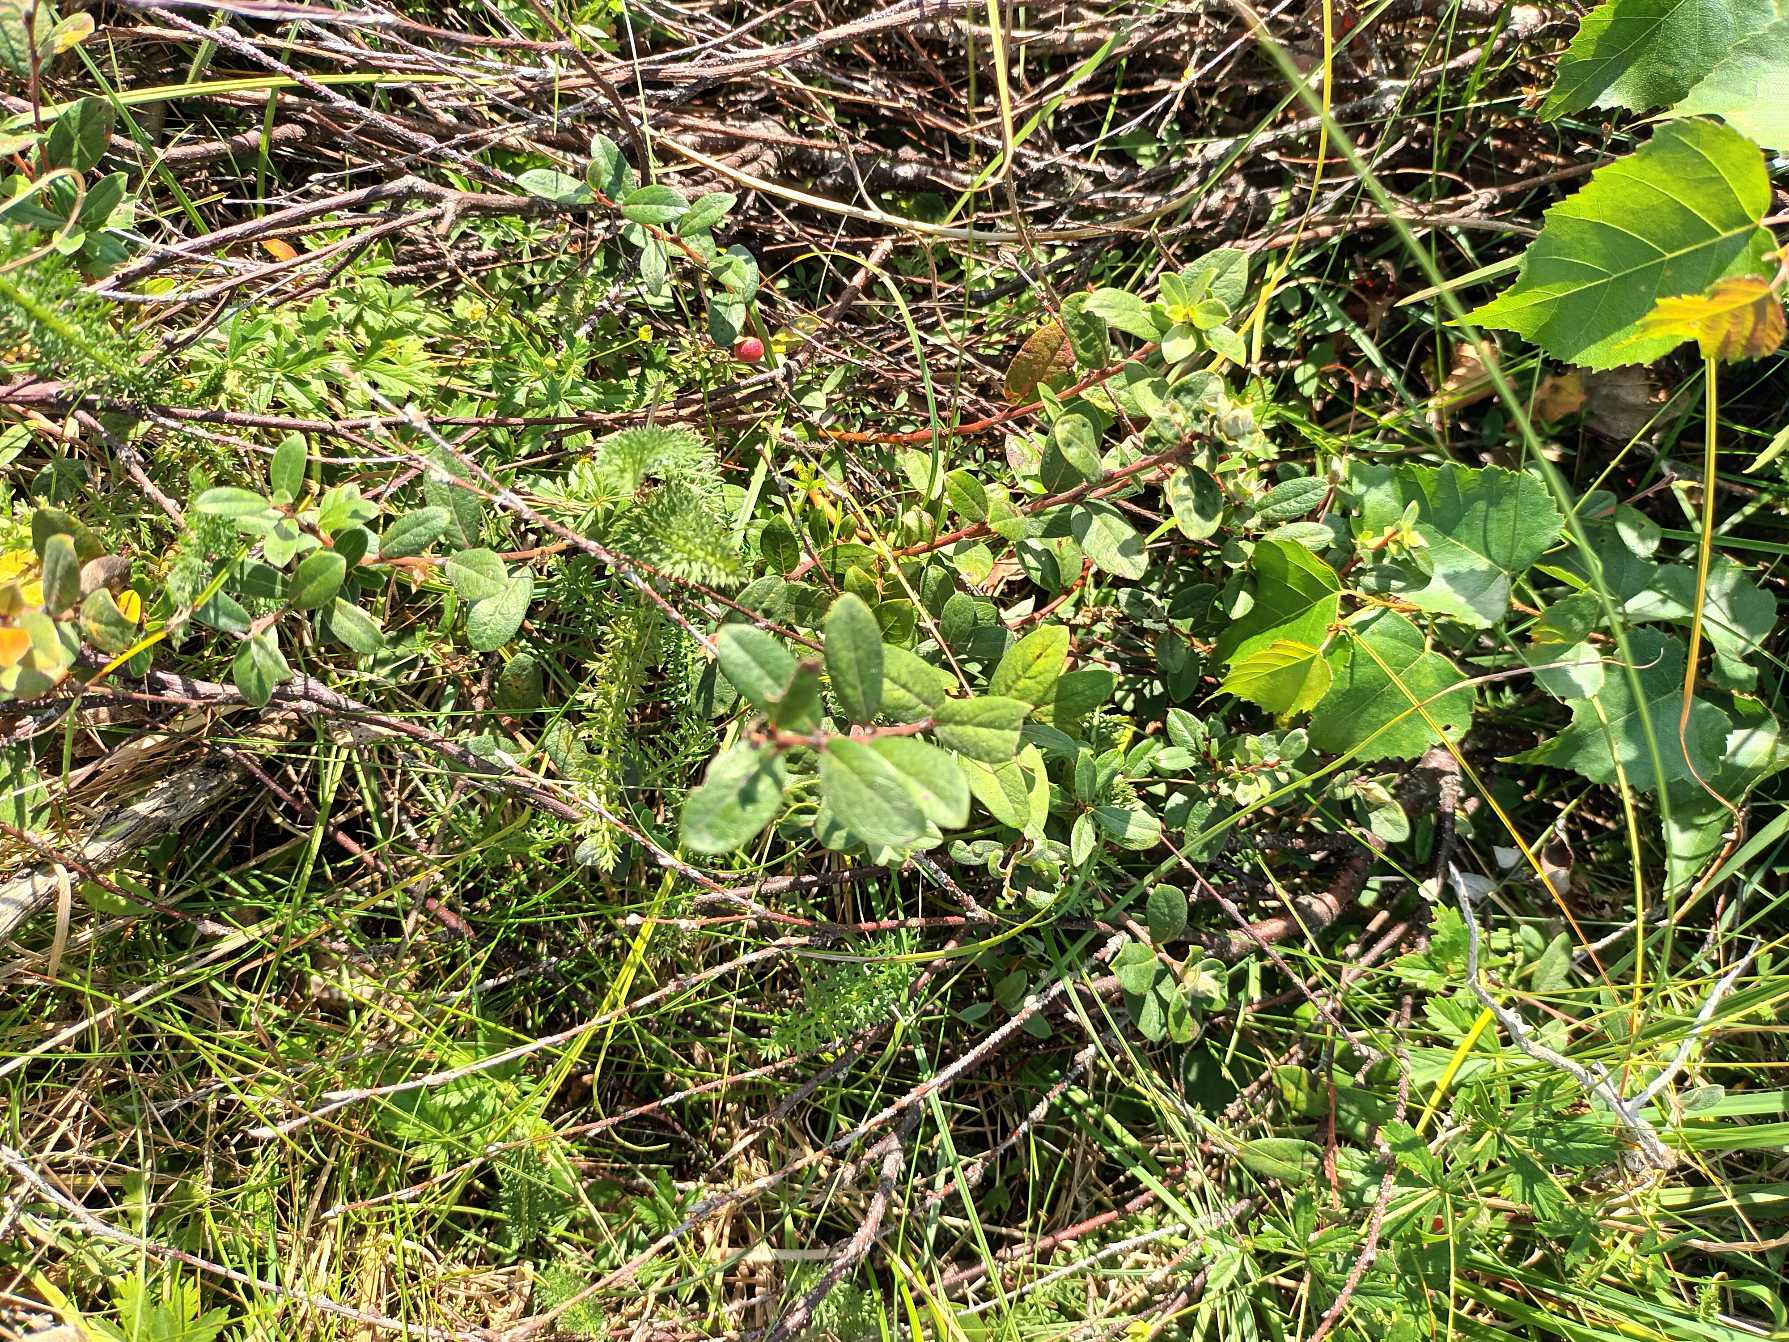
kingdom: Plantae
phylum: Tracheophyta
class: Magnoliopsida
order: Malpighiales
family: Salicaceae
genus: Salix
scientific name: Salix repens
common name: Krybende pil
